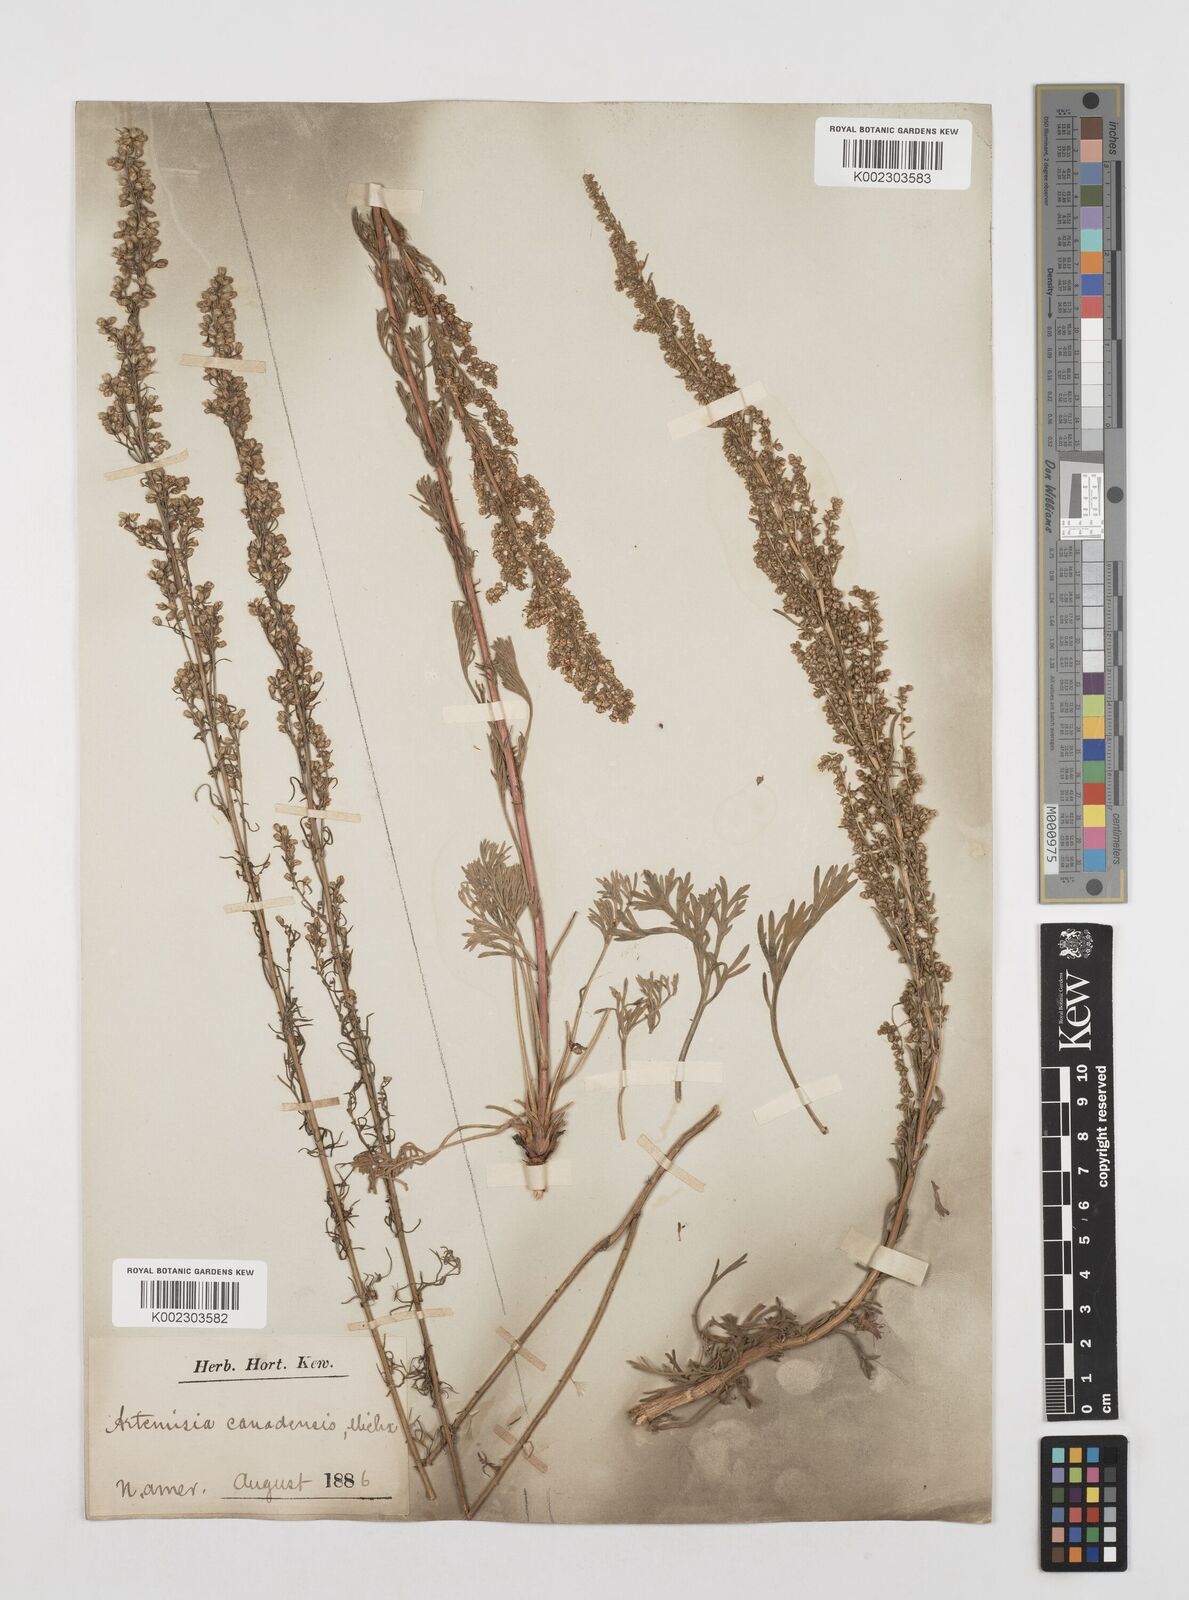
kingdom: Plantae
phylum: Tracheophyta
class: Magnoliopsida
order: Asterales
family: Asteraceae
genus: Artemisia
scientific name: Artemisia campestris
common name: Field wormwood
